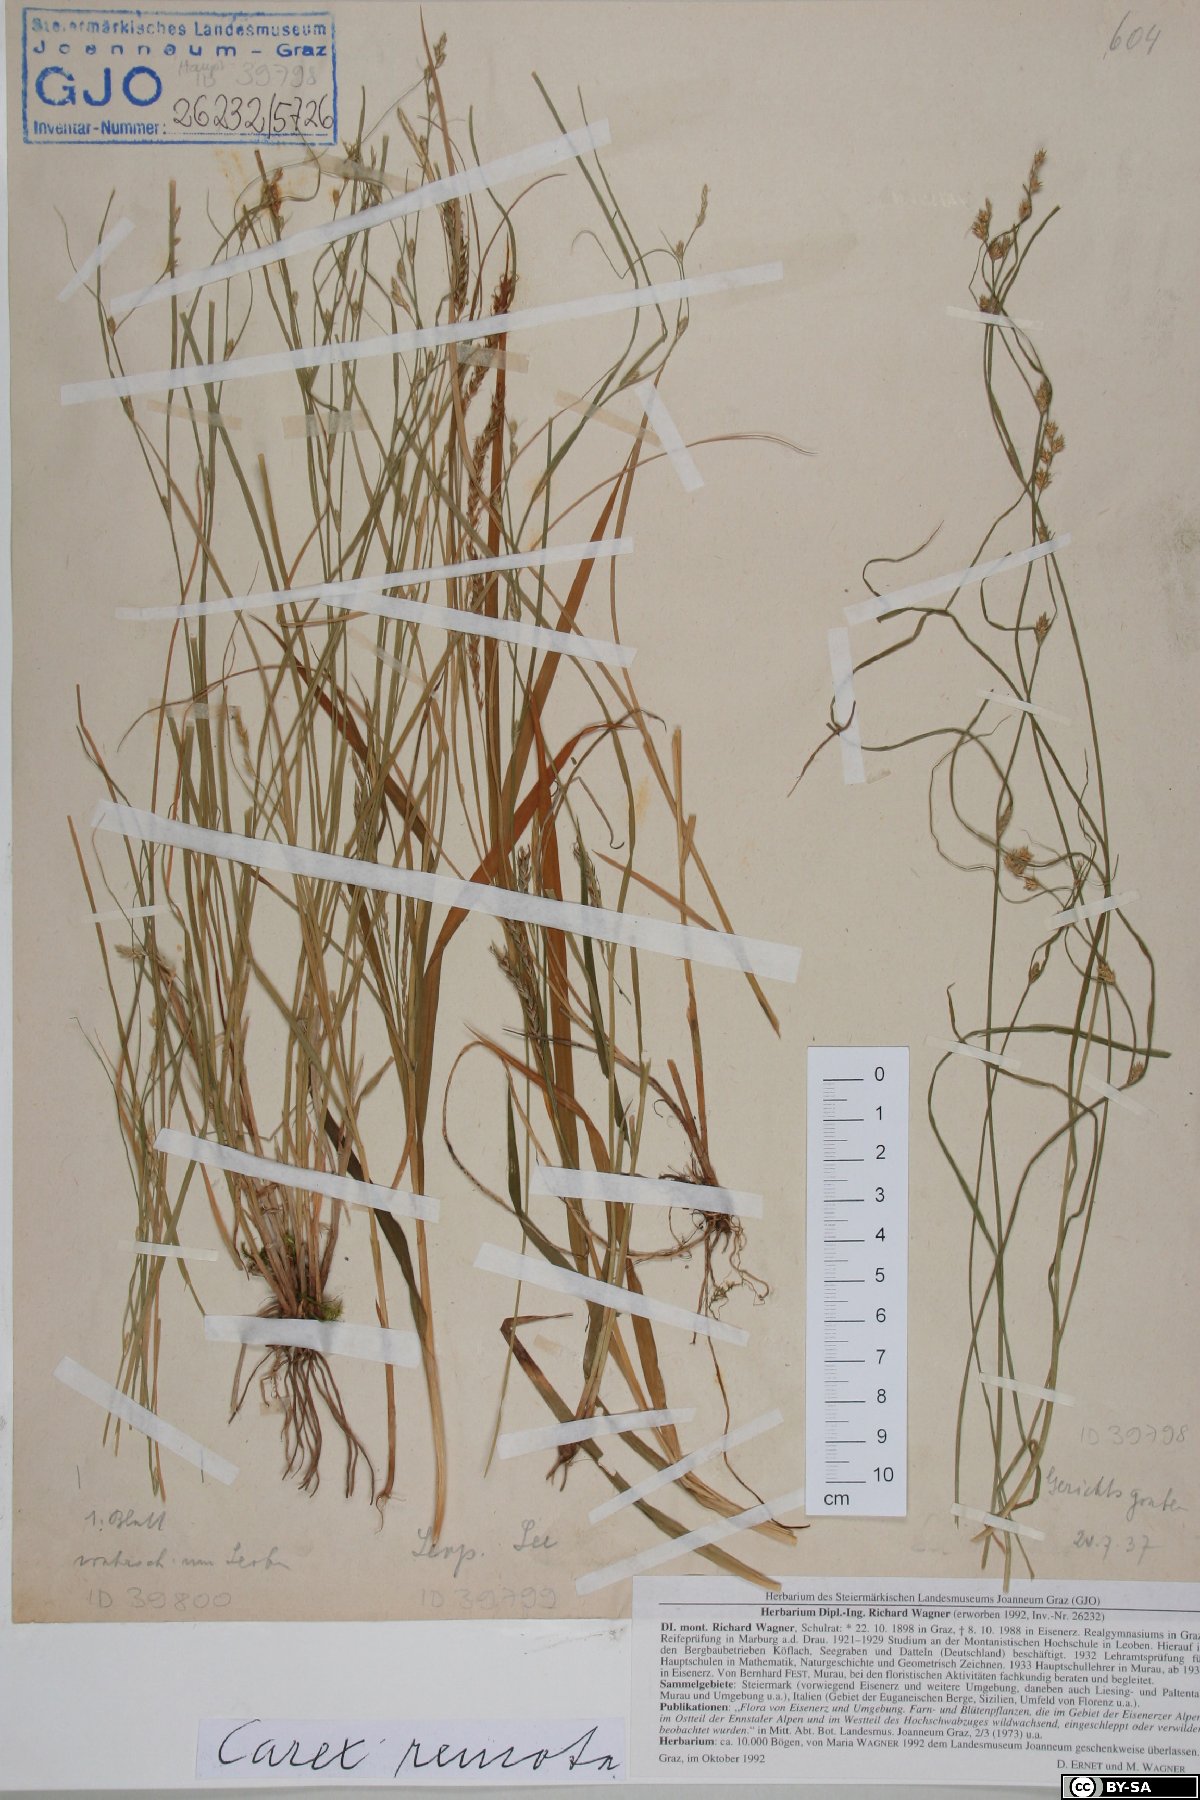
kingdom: Plantae
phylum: Tracheophyta
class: Liliopsida
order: Poales
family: Cyperaceae
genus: Carex
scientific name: Carex remota
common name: Remote sedge
